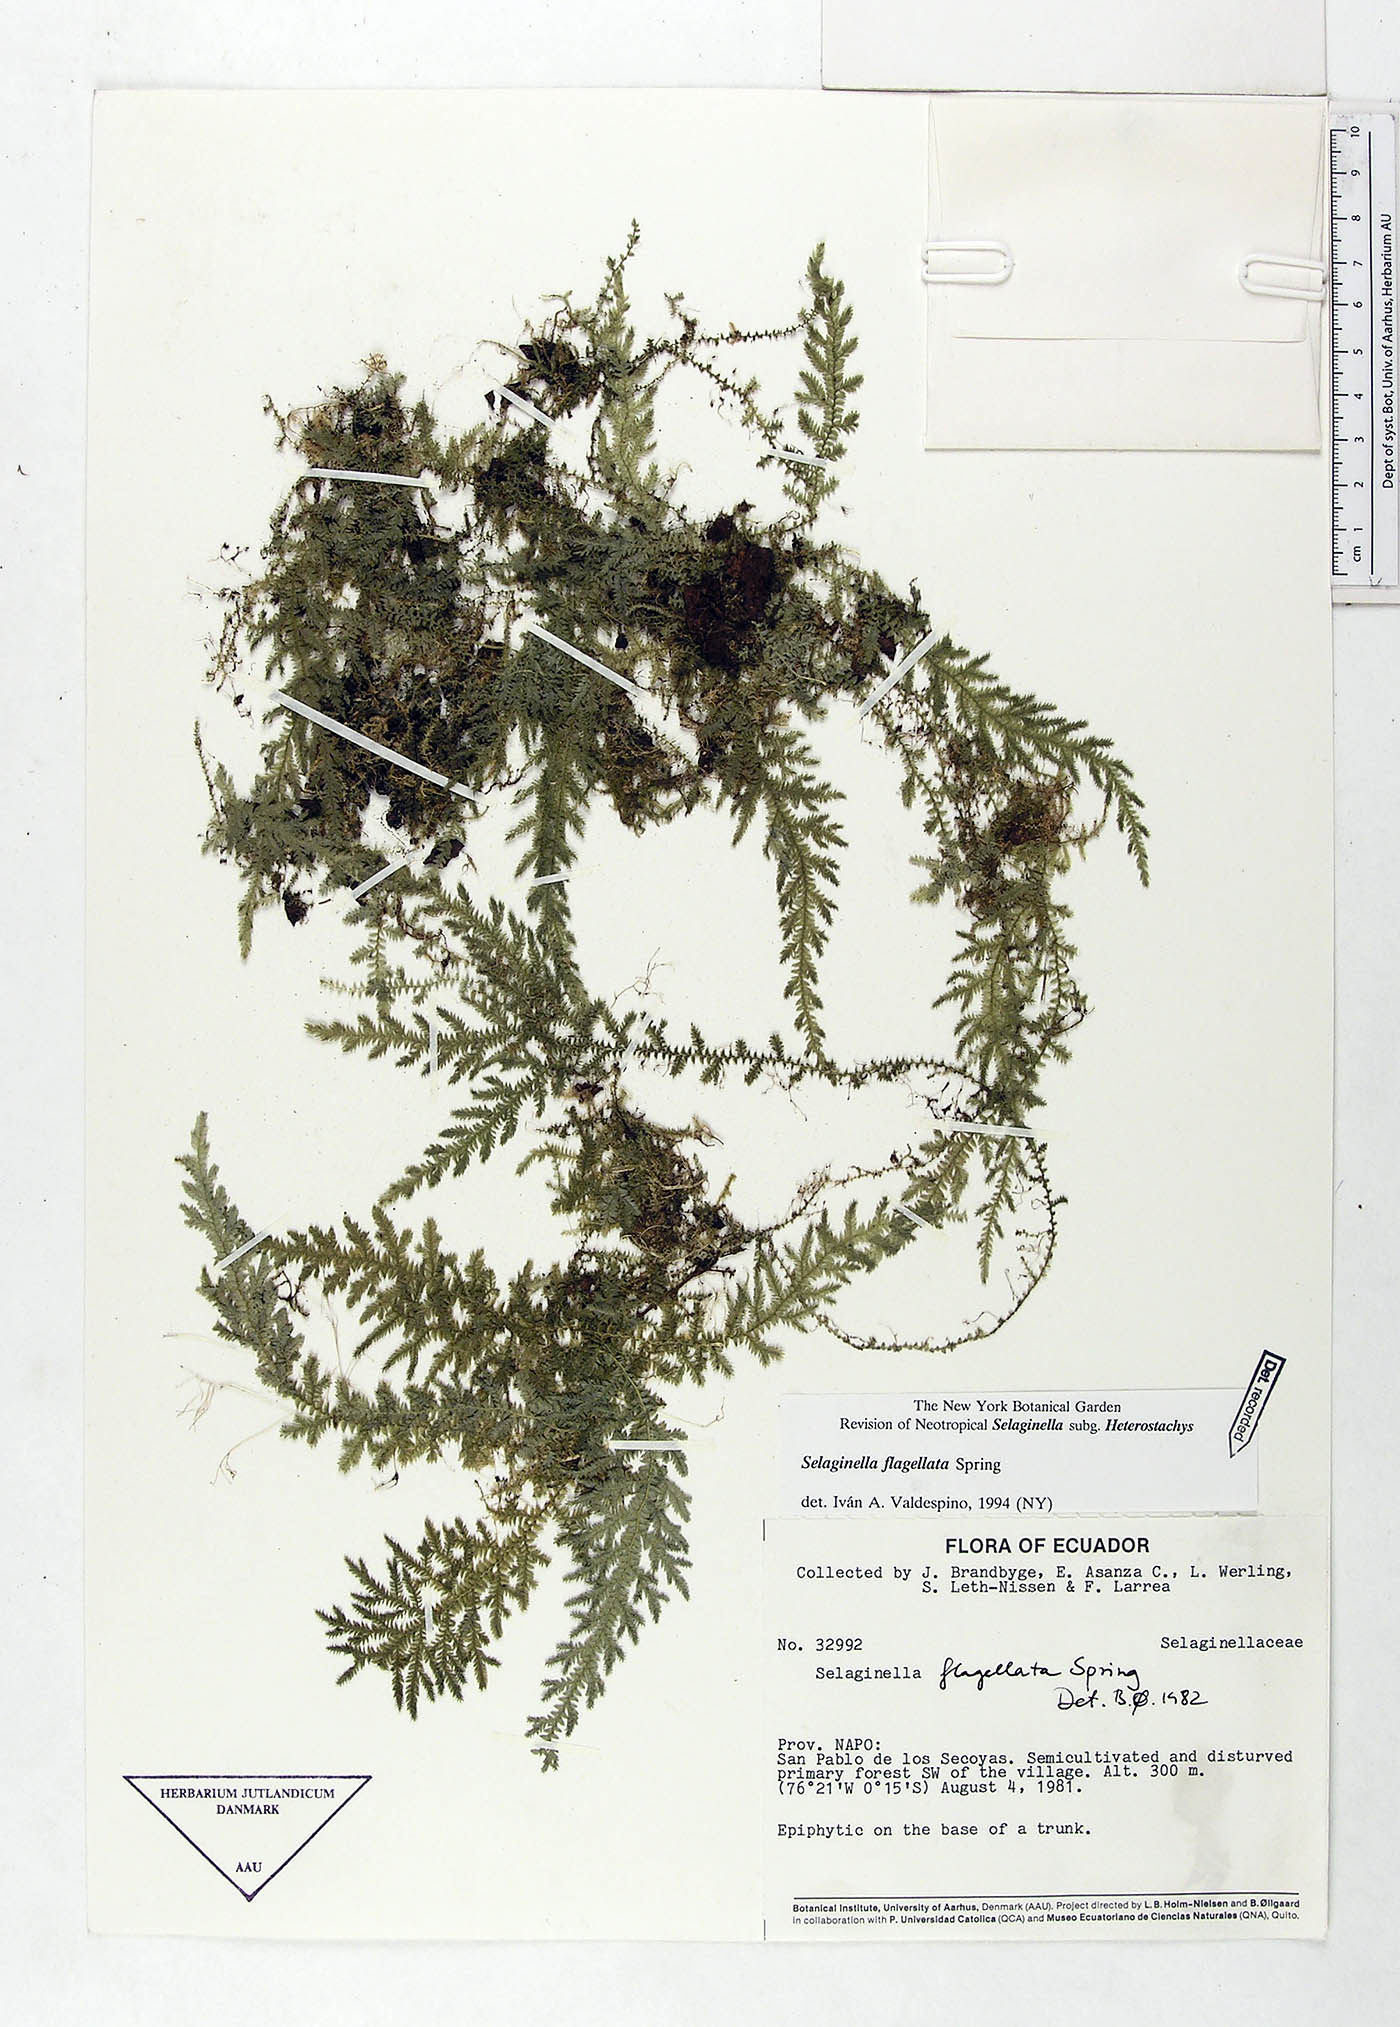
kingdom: Plantae
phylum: Tracheophyta
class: Lycopodiopsida
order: Selaginellales
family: Selaginellaceae
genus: Selaginella
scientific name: Selaginella flagellata
